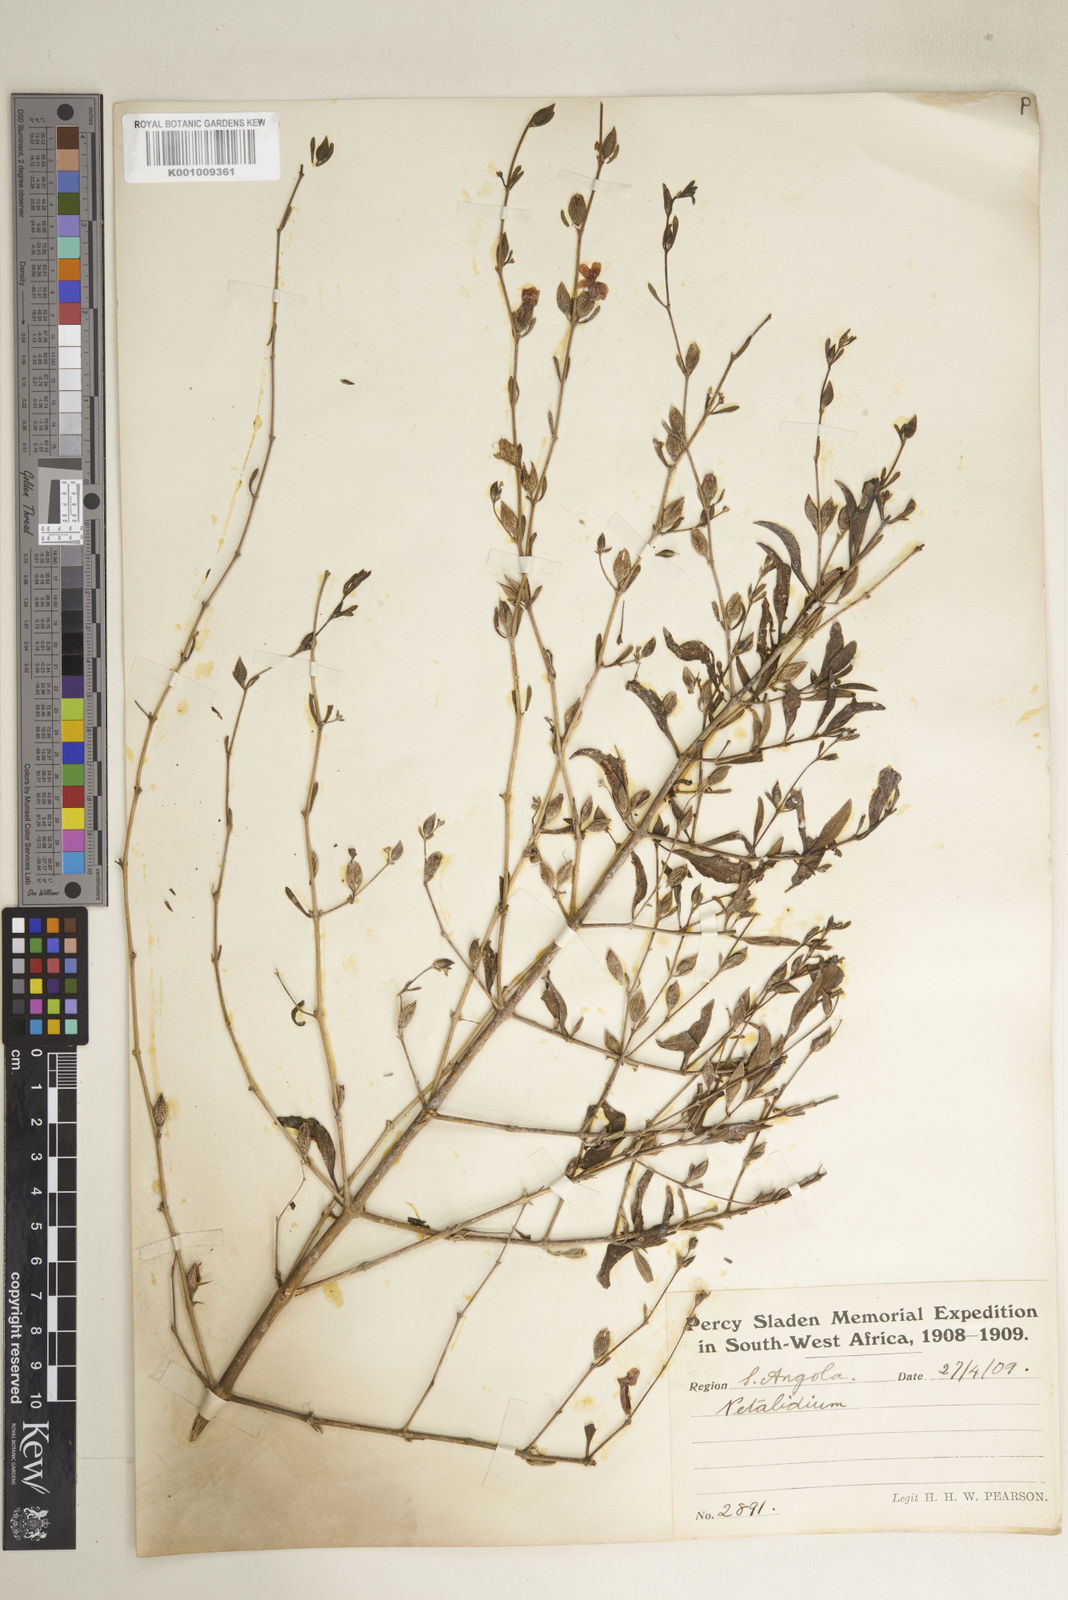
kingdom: Plantae
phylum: Tracheophyta
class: Magnoliopsida
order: Lamiales
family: Acanthaceae
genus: Petalidium
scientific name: Petalidium physaloides
